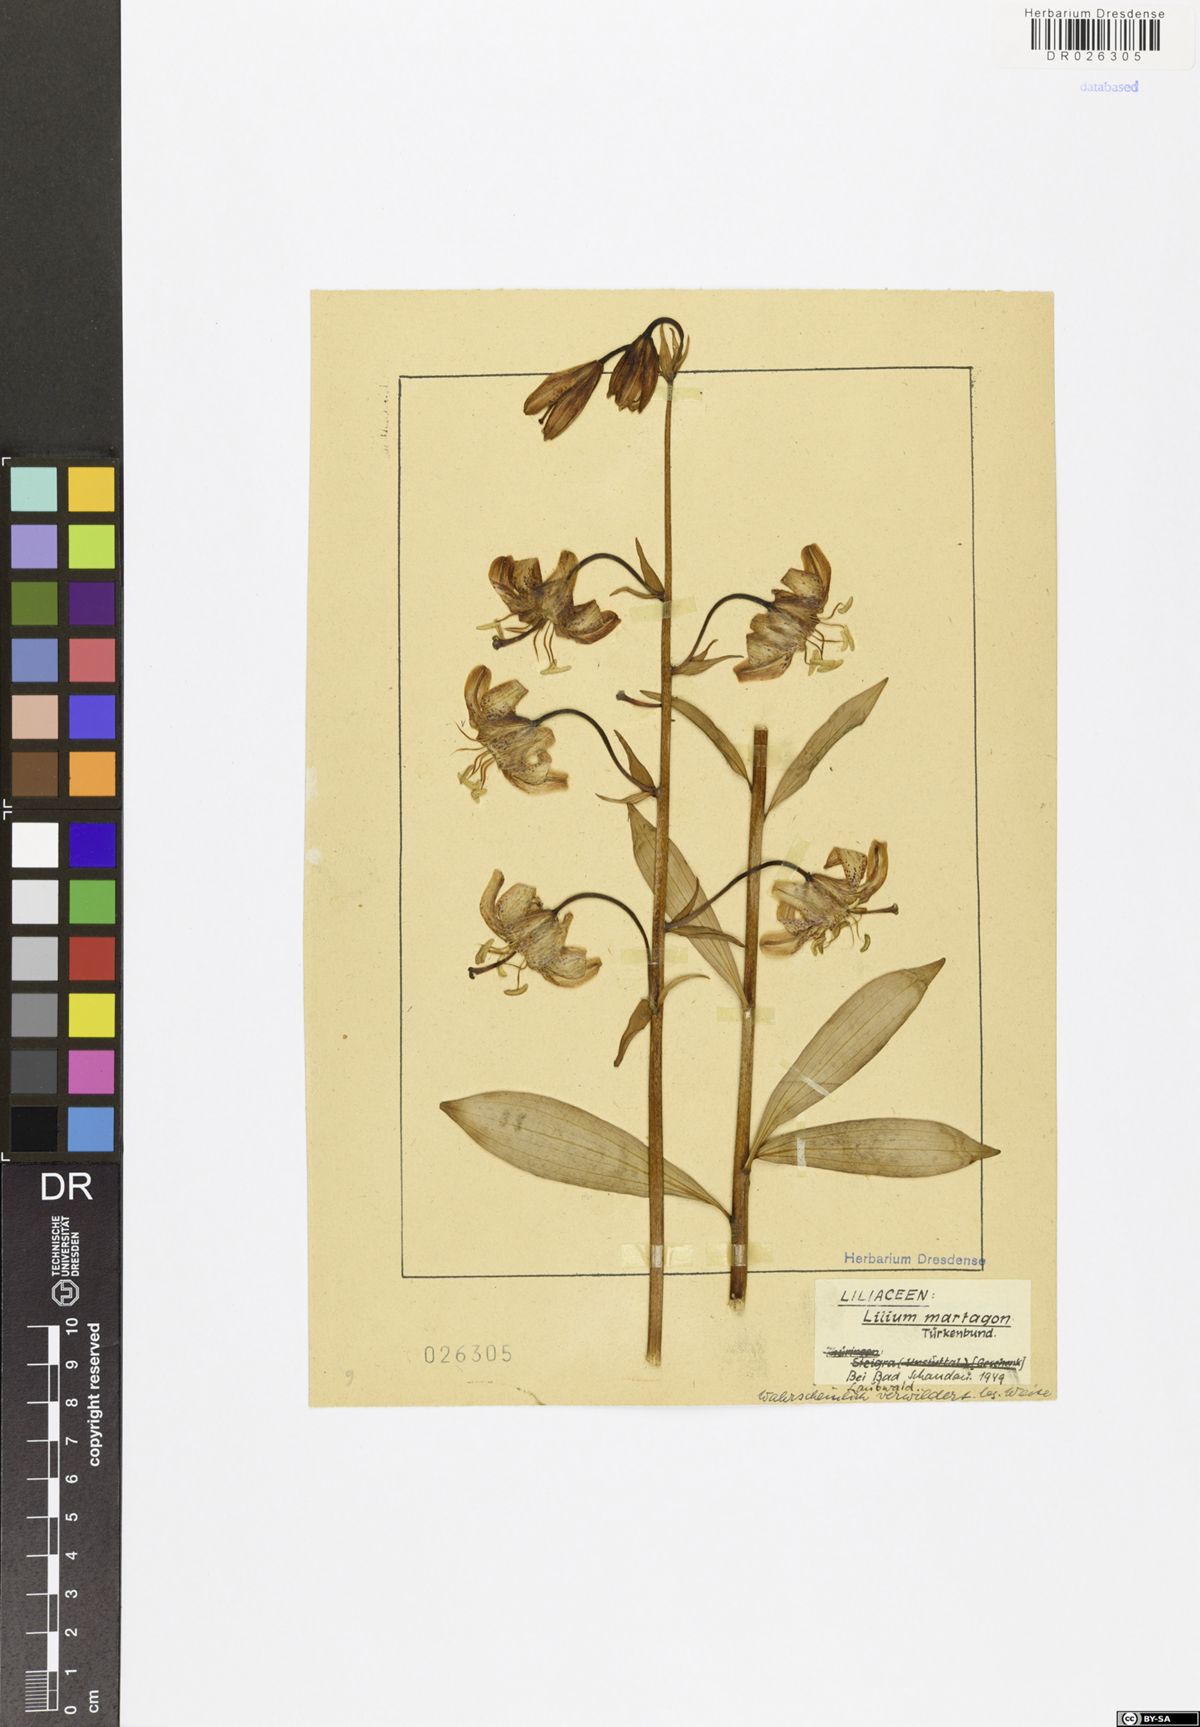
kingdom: Plantae
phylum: Tracheophyta
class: Liliopsida
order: Liliales
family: Liliaceae
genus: Lilium
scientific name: Lilium martagon
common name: Martagon lily
